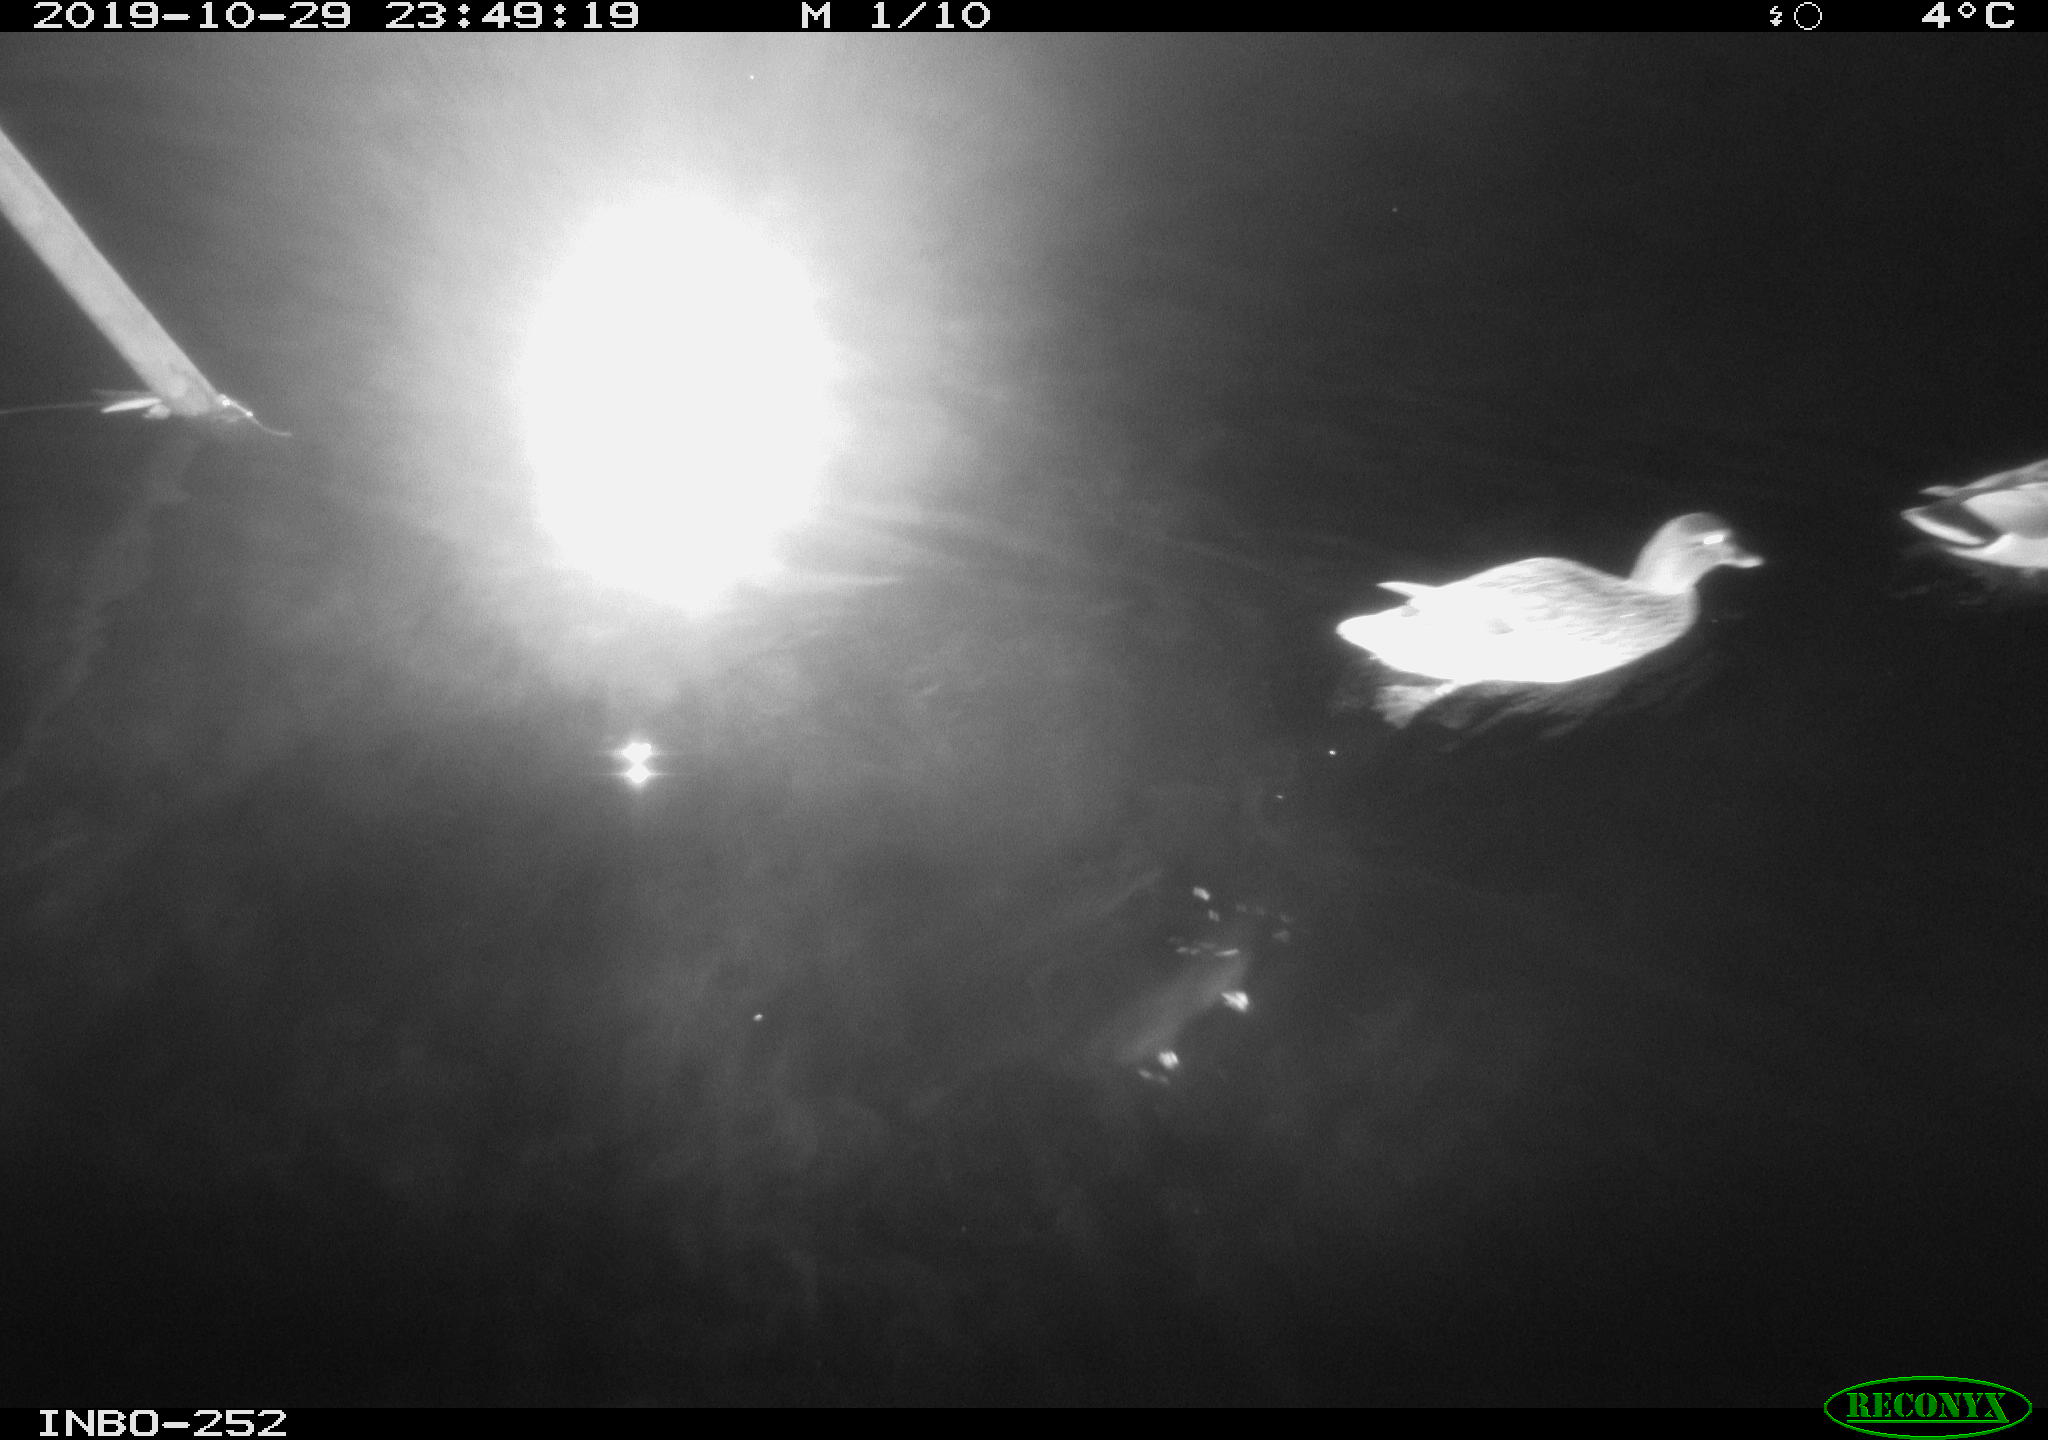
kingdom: Animalia
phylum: Chordata
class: Aves
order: Anseriformes
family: Anatidae
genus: Anas
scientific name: Anas platyrhynchos
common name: Mallard
